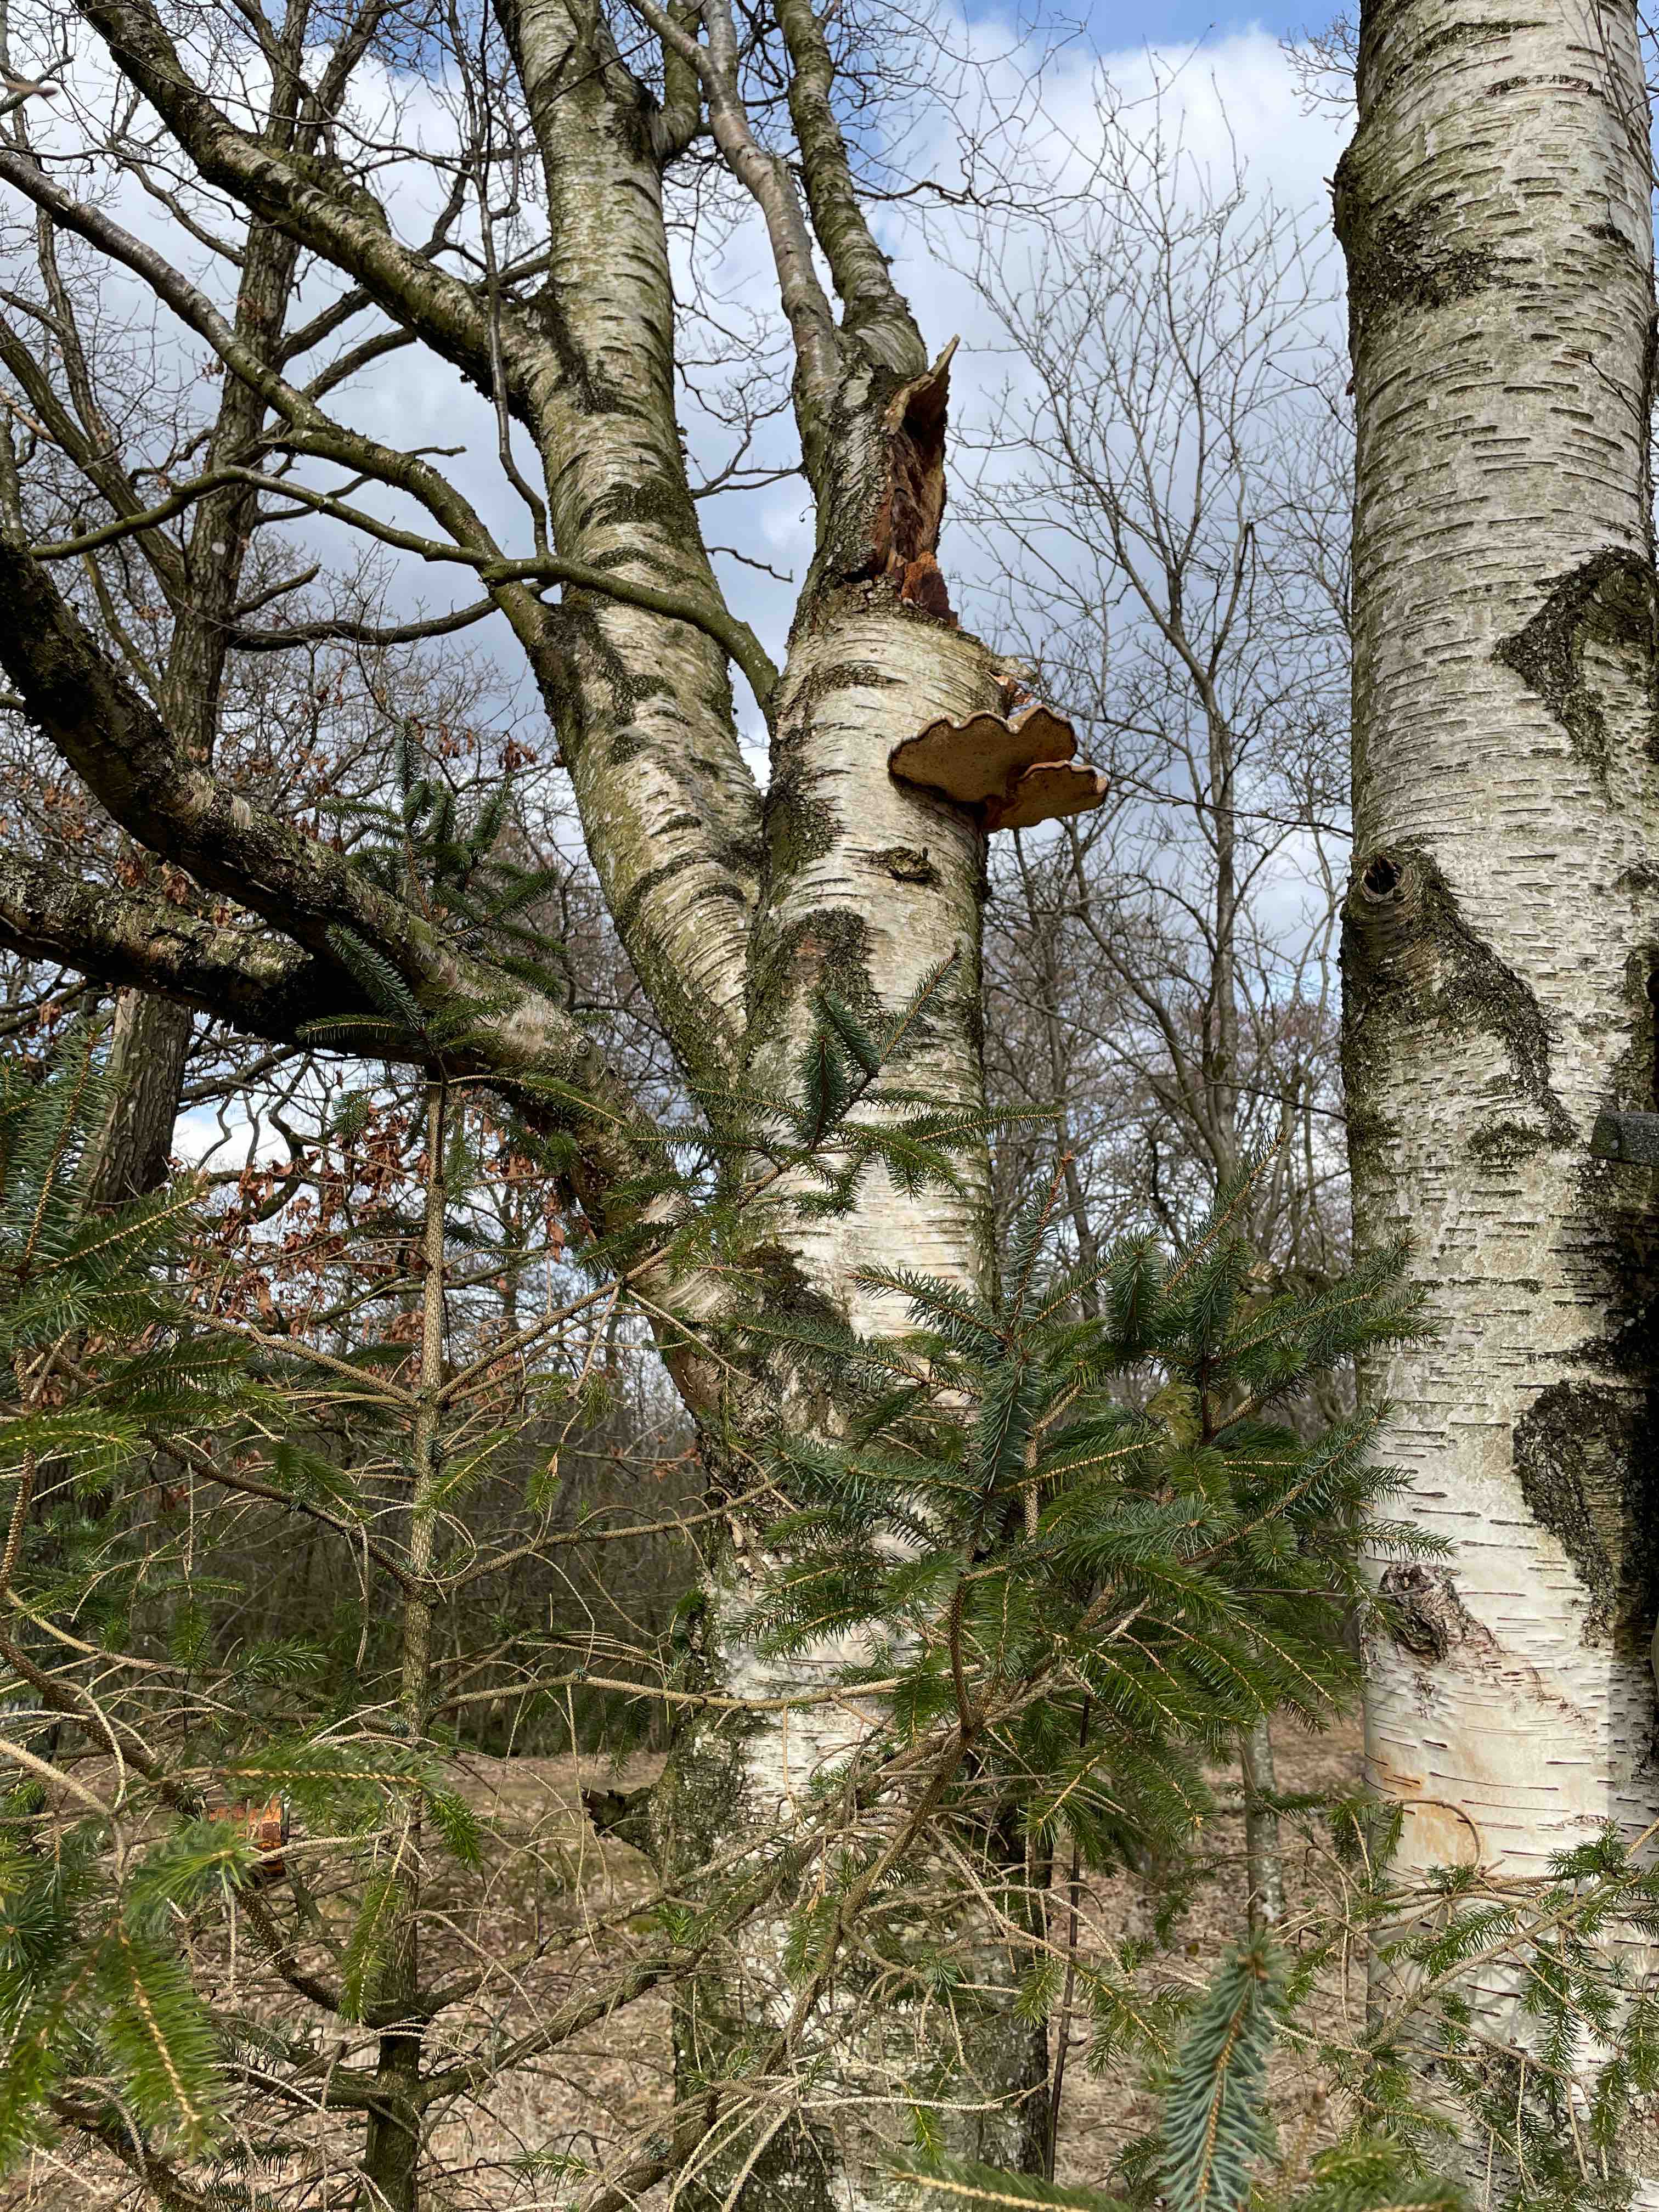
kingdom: Fungi
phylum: Basidiomycota
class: Agaricomycetes
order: Polyporales
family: Fomitopsidaceae
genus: Fomitopsis
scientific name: Fomitopsis betulina
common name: birkeporesvamp
